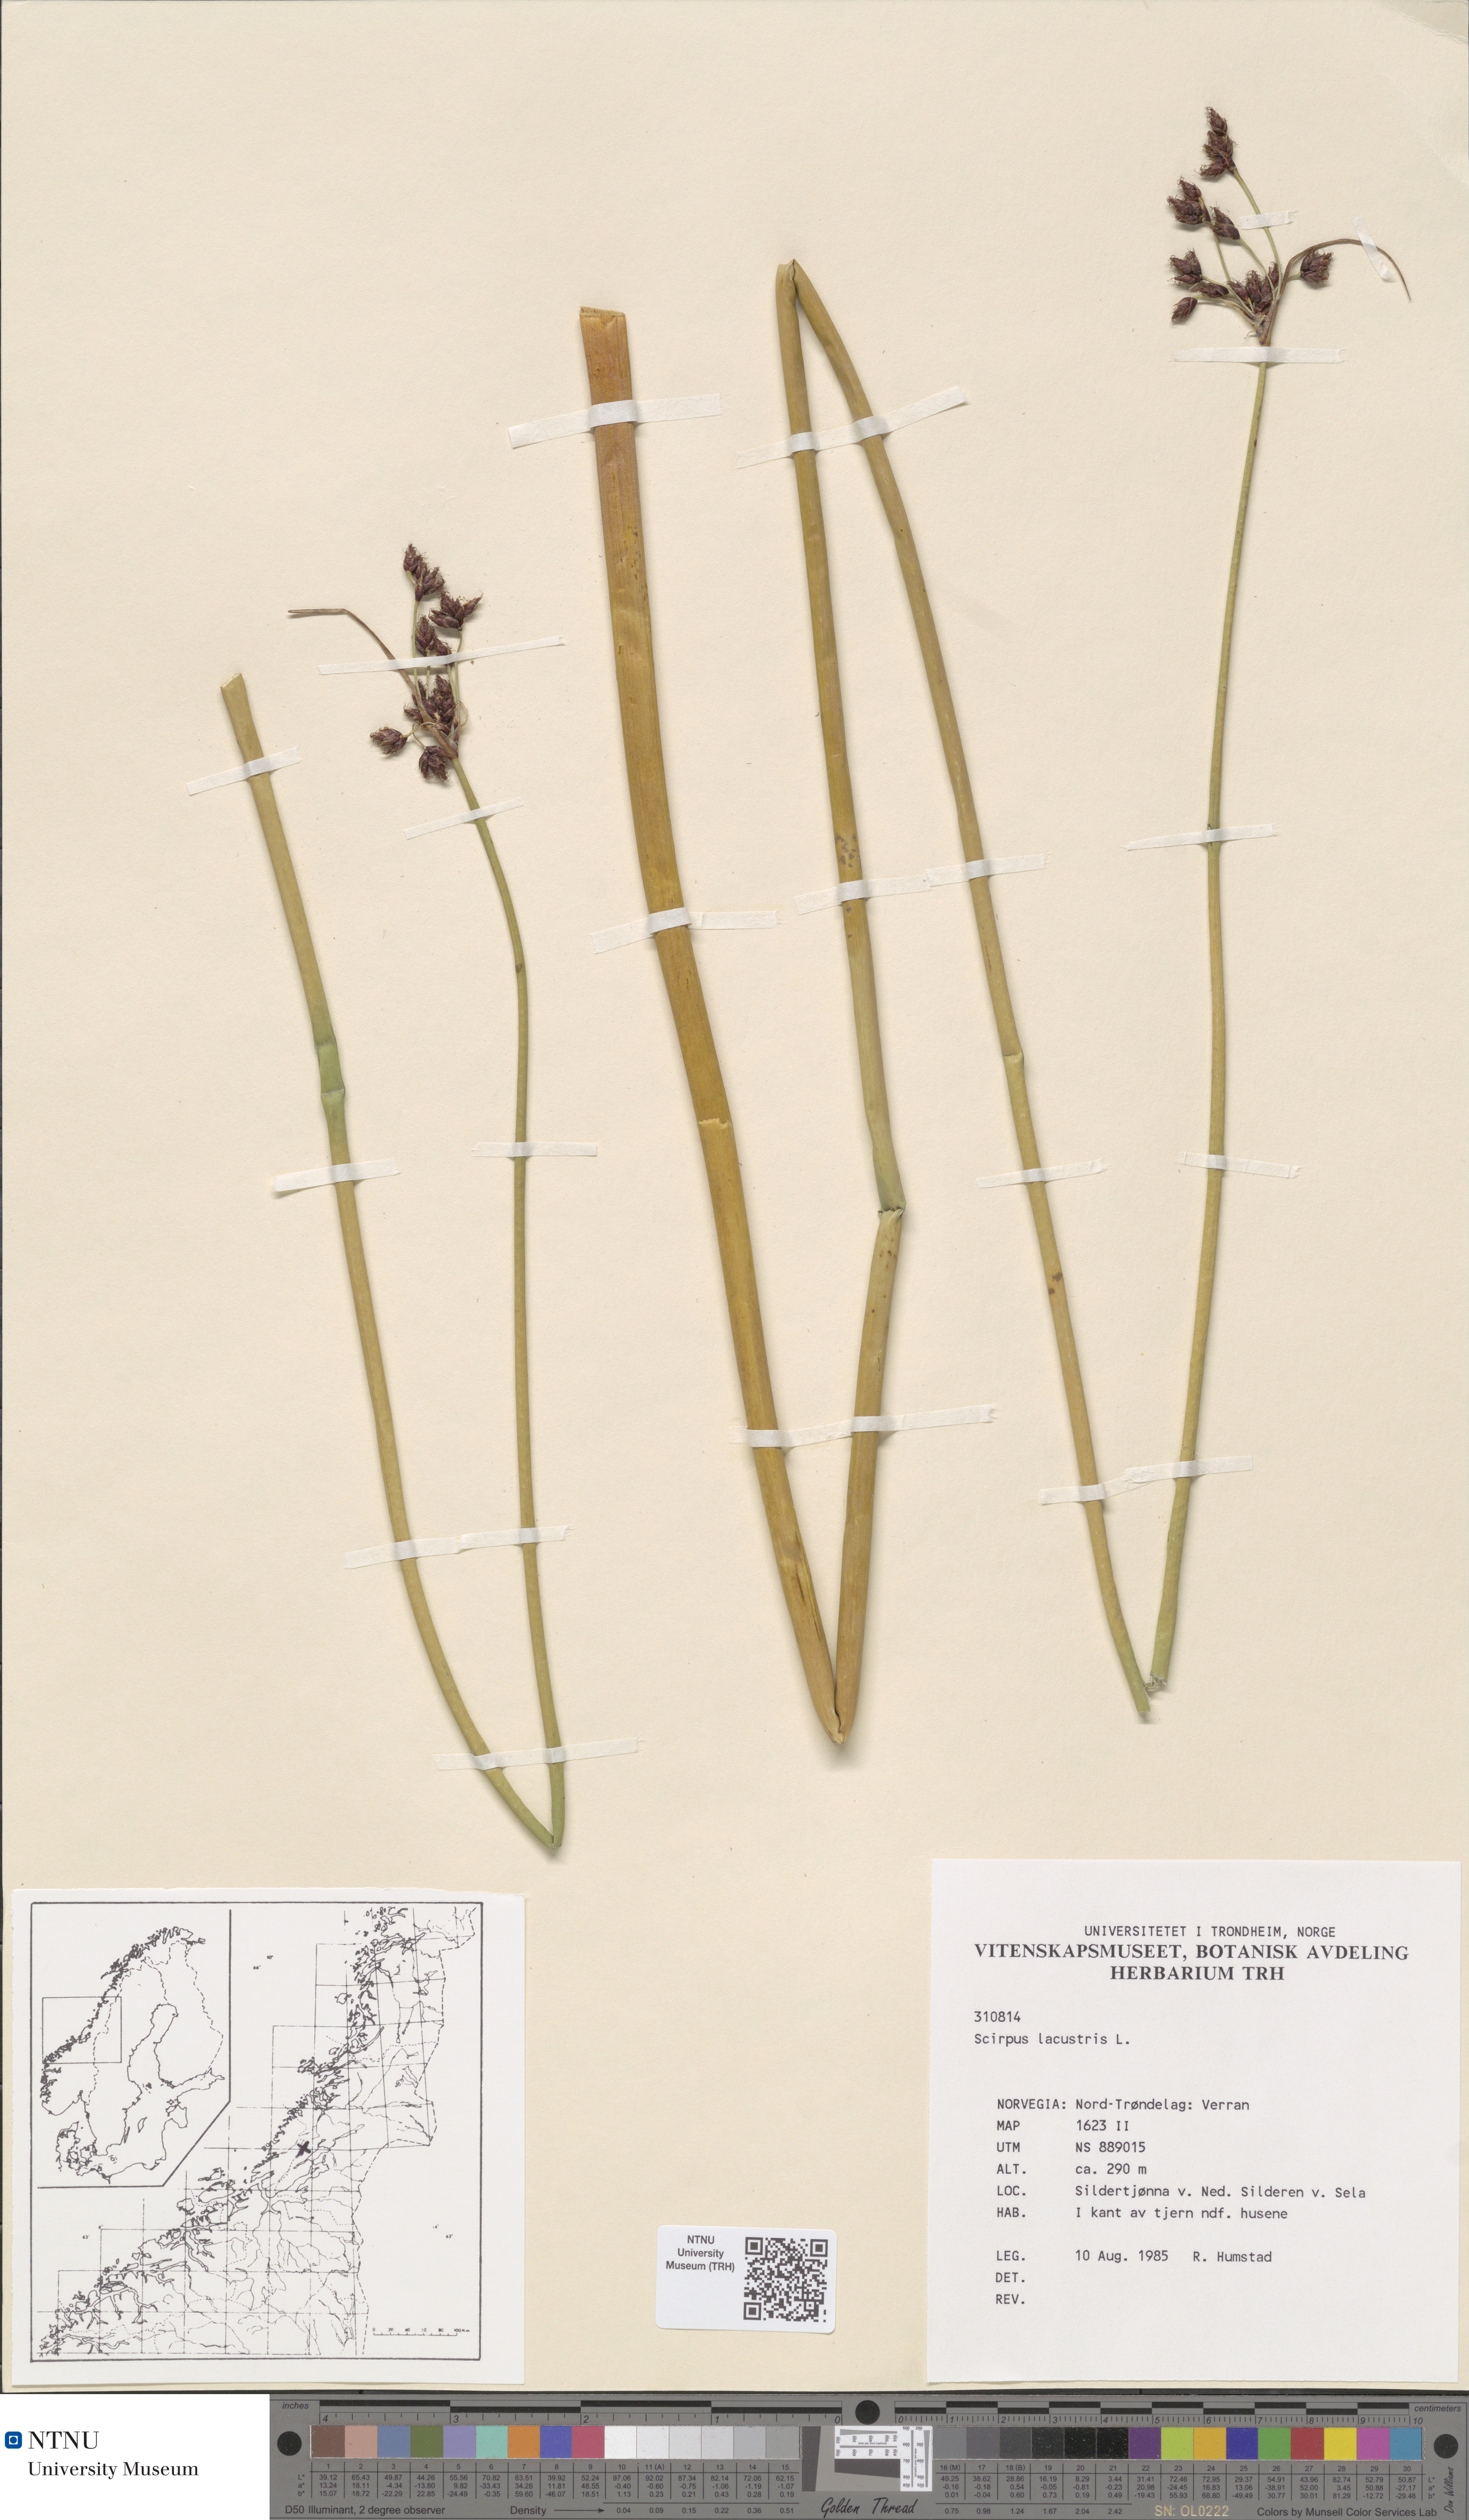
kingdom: Plantae
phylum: Tracheophyta
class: Liliopsida
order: Poales
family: Cyperaceae
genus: Schoenoplectus
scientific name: Schoenoplectus lacustris
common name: Common club-rush
